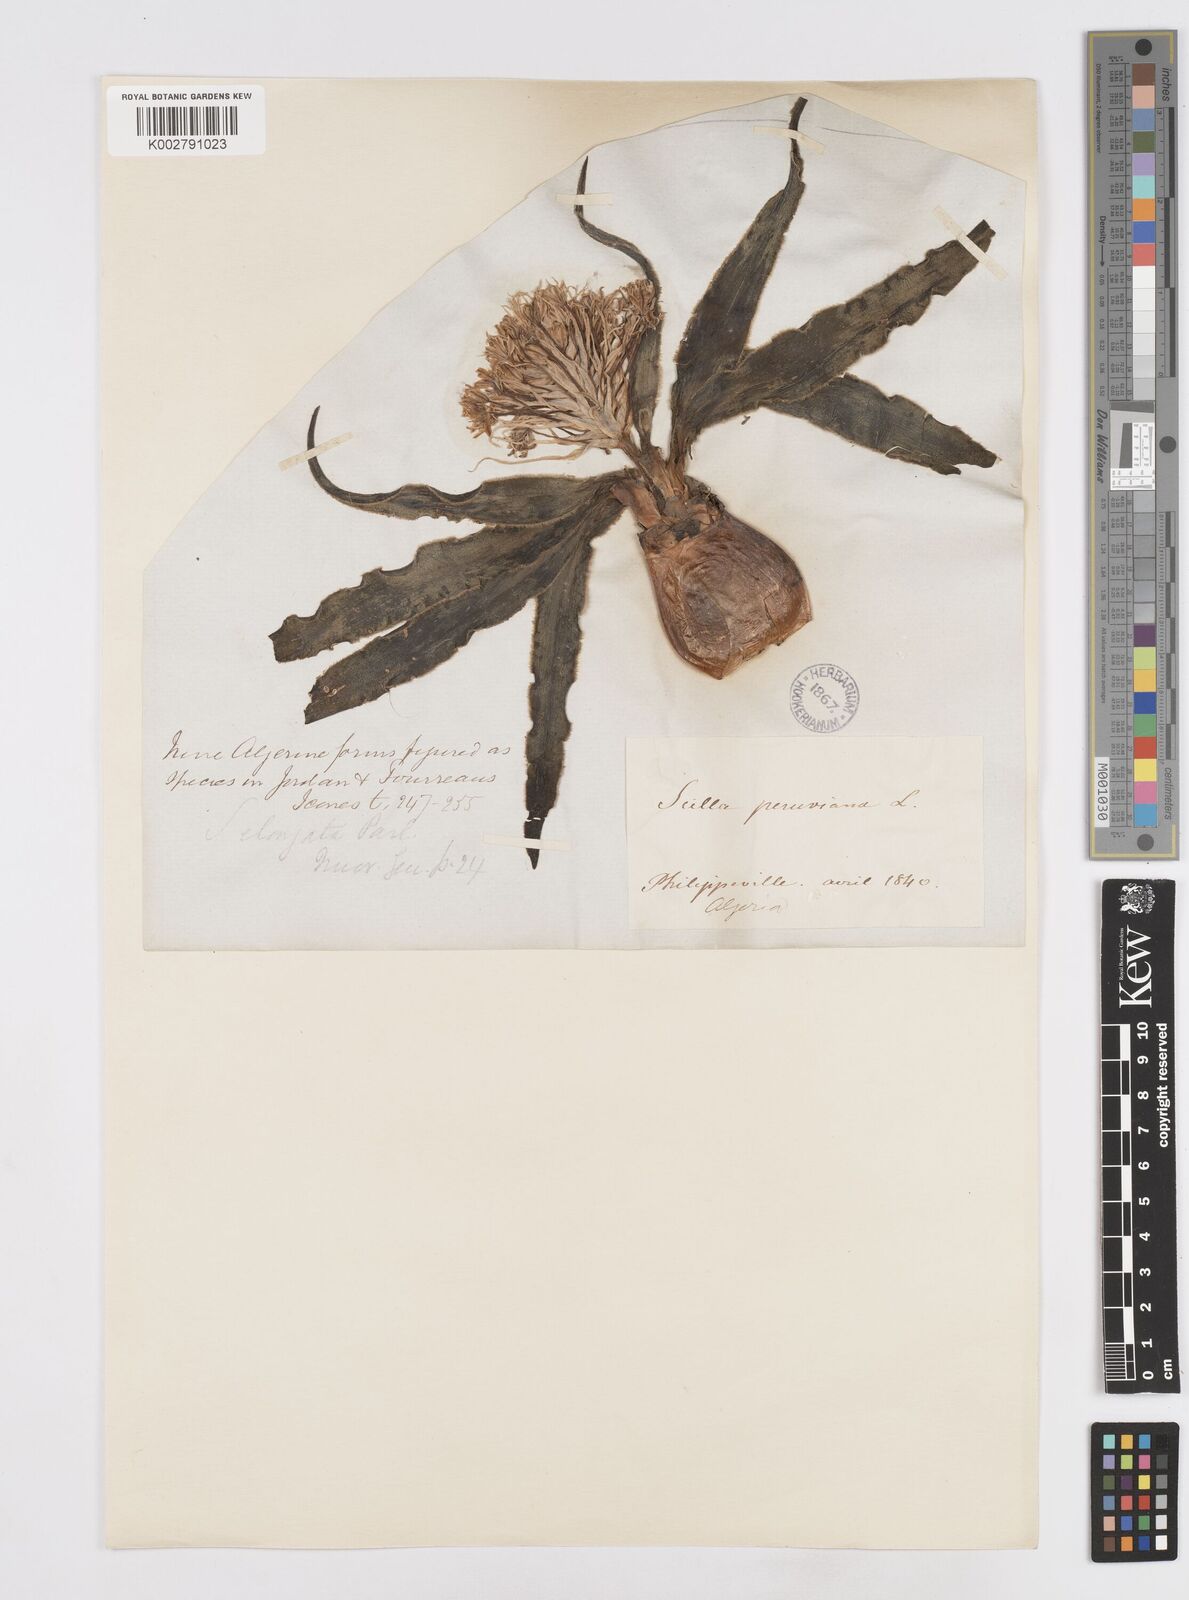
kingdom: Plantae
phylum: Tracheophyta
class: Liliopsida
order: Asparagales
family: Asparagaceae
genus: Scilla
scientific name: Scilla peruviana
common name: Portuguese squill
